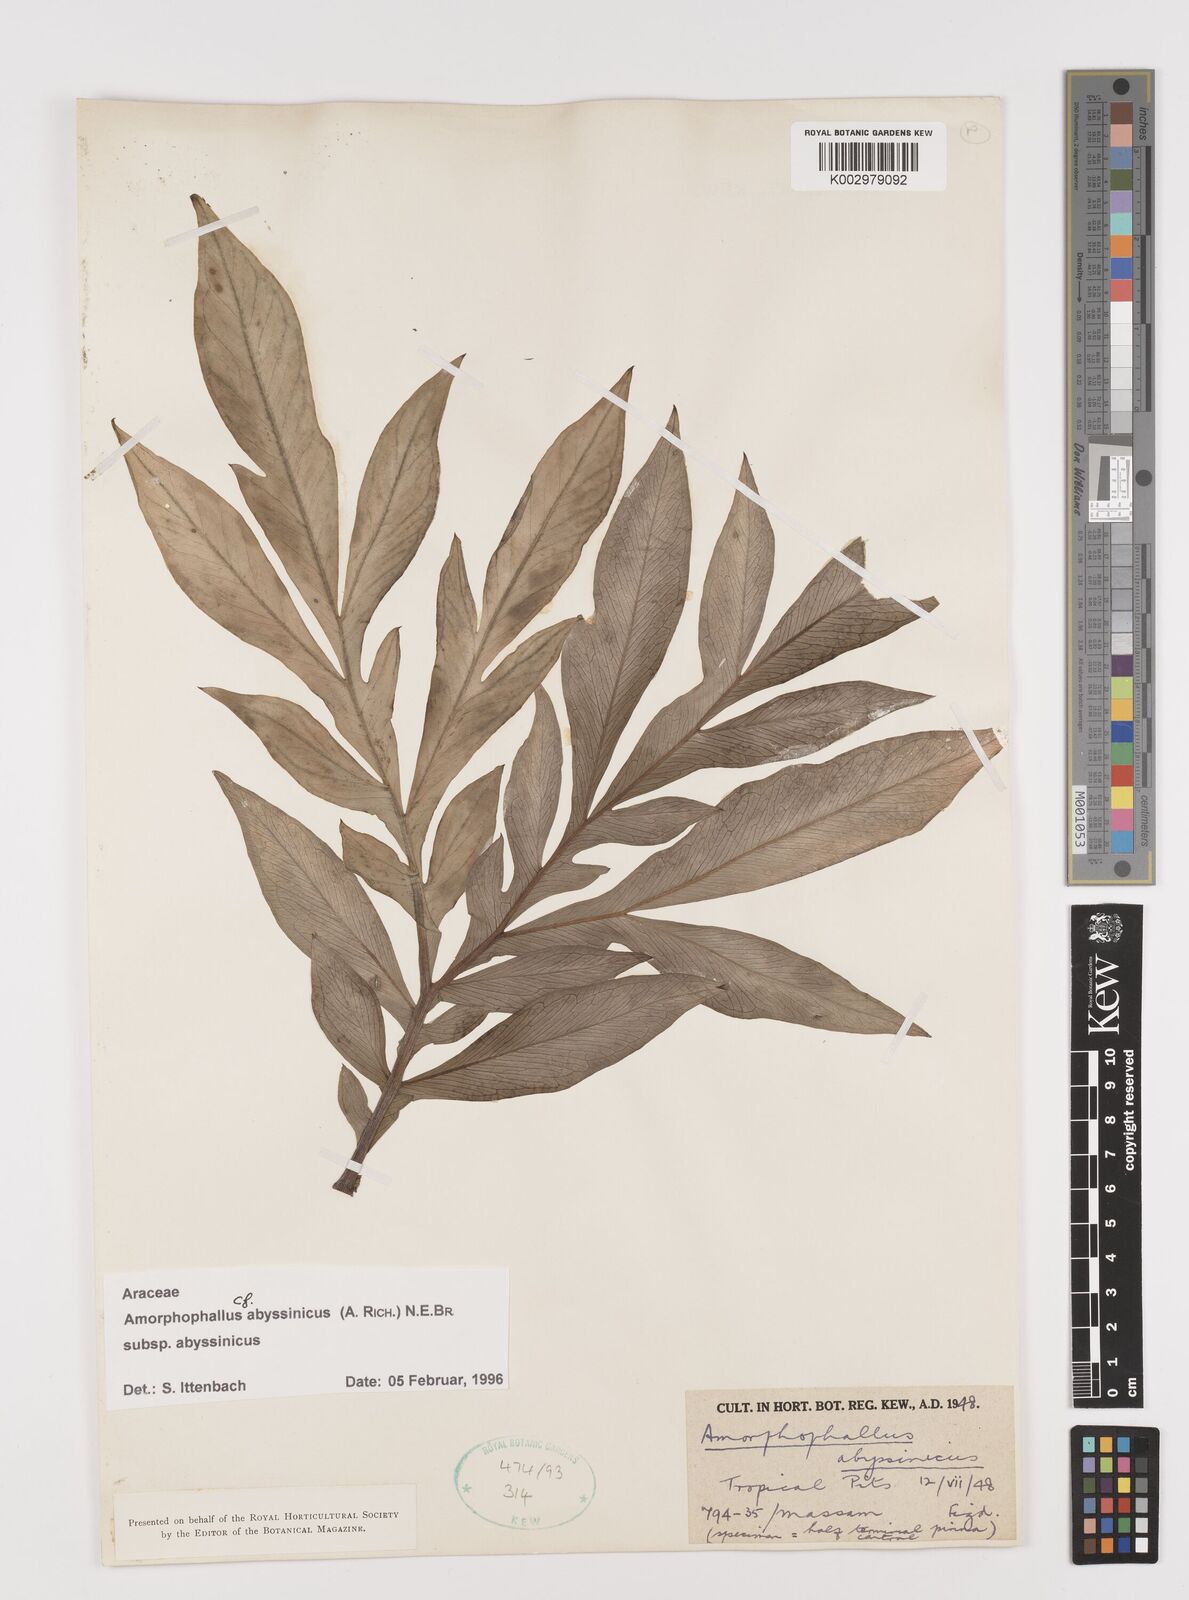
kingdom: Plantae
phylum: Tracheophyta
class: Liliopsida
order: Alismatales
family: Araceae
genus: Amorphophallus
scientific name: Amorphophallus abyssinicus
